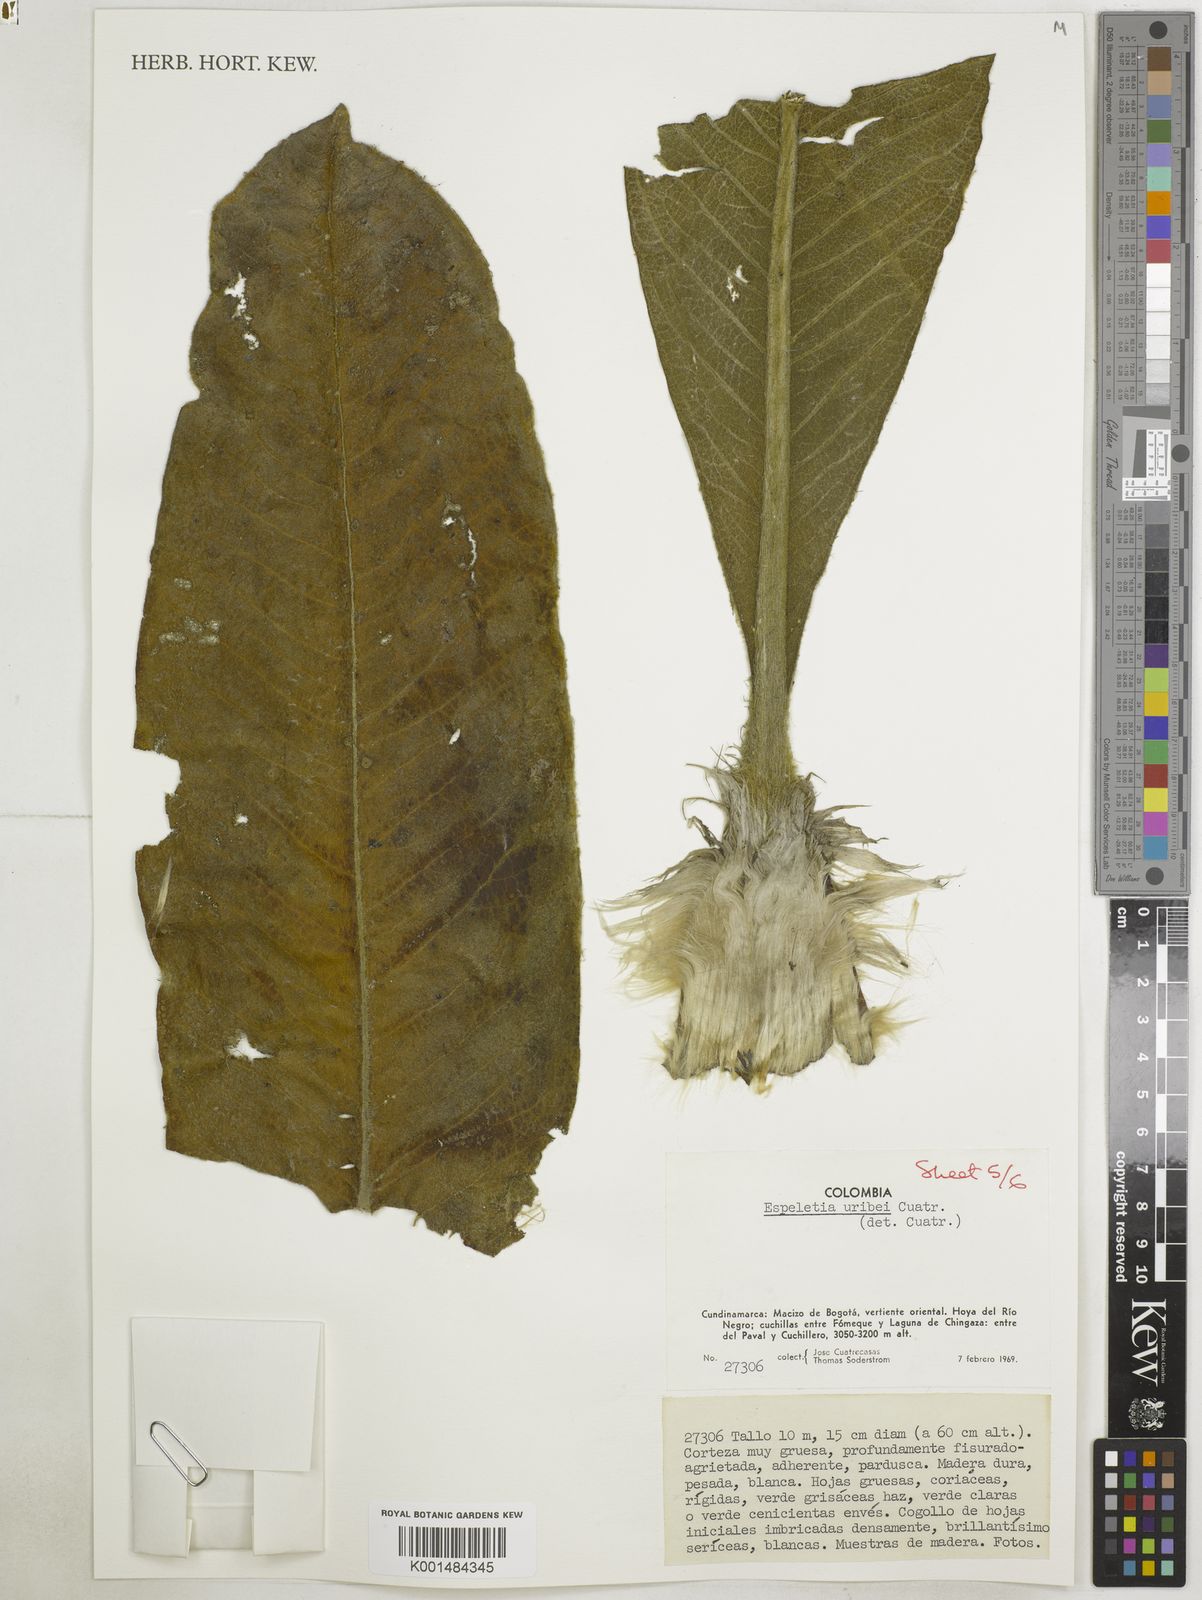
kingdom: Plantae
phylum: Tracheophyta
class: Magnoliopsida
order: Asterales
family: Asteraceae
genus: Espeletia
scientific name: Espeletia uribei
